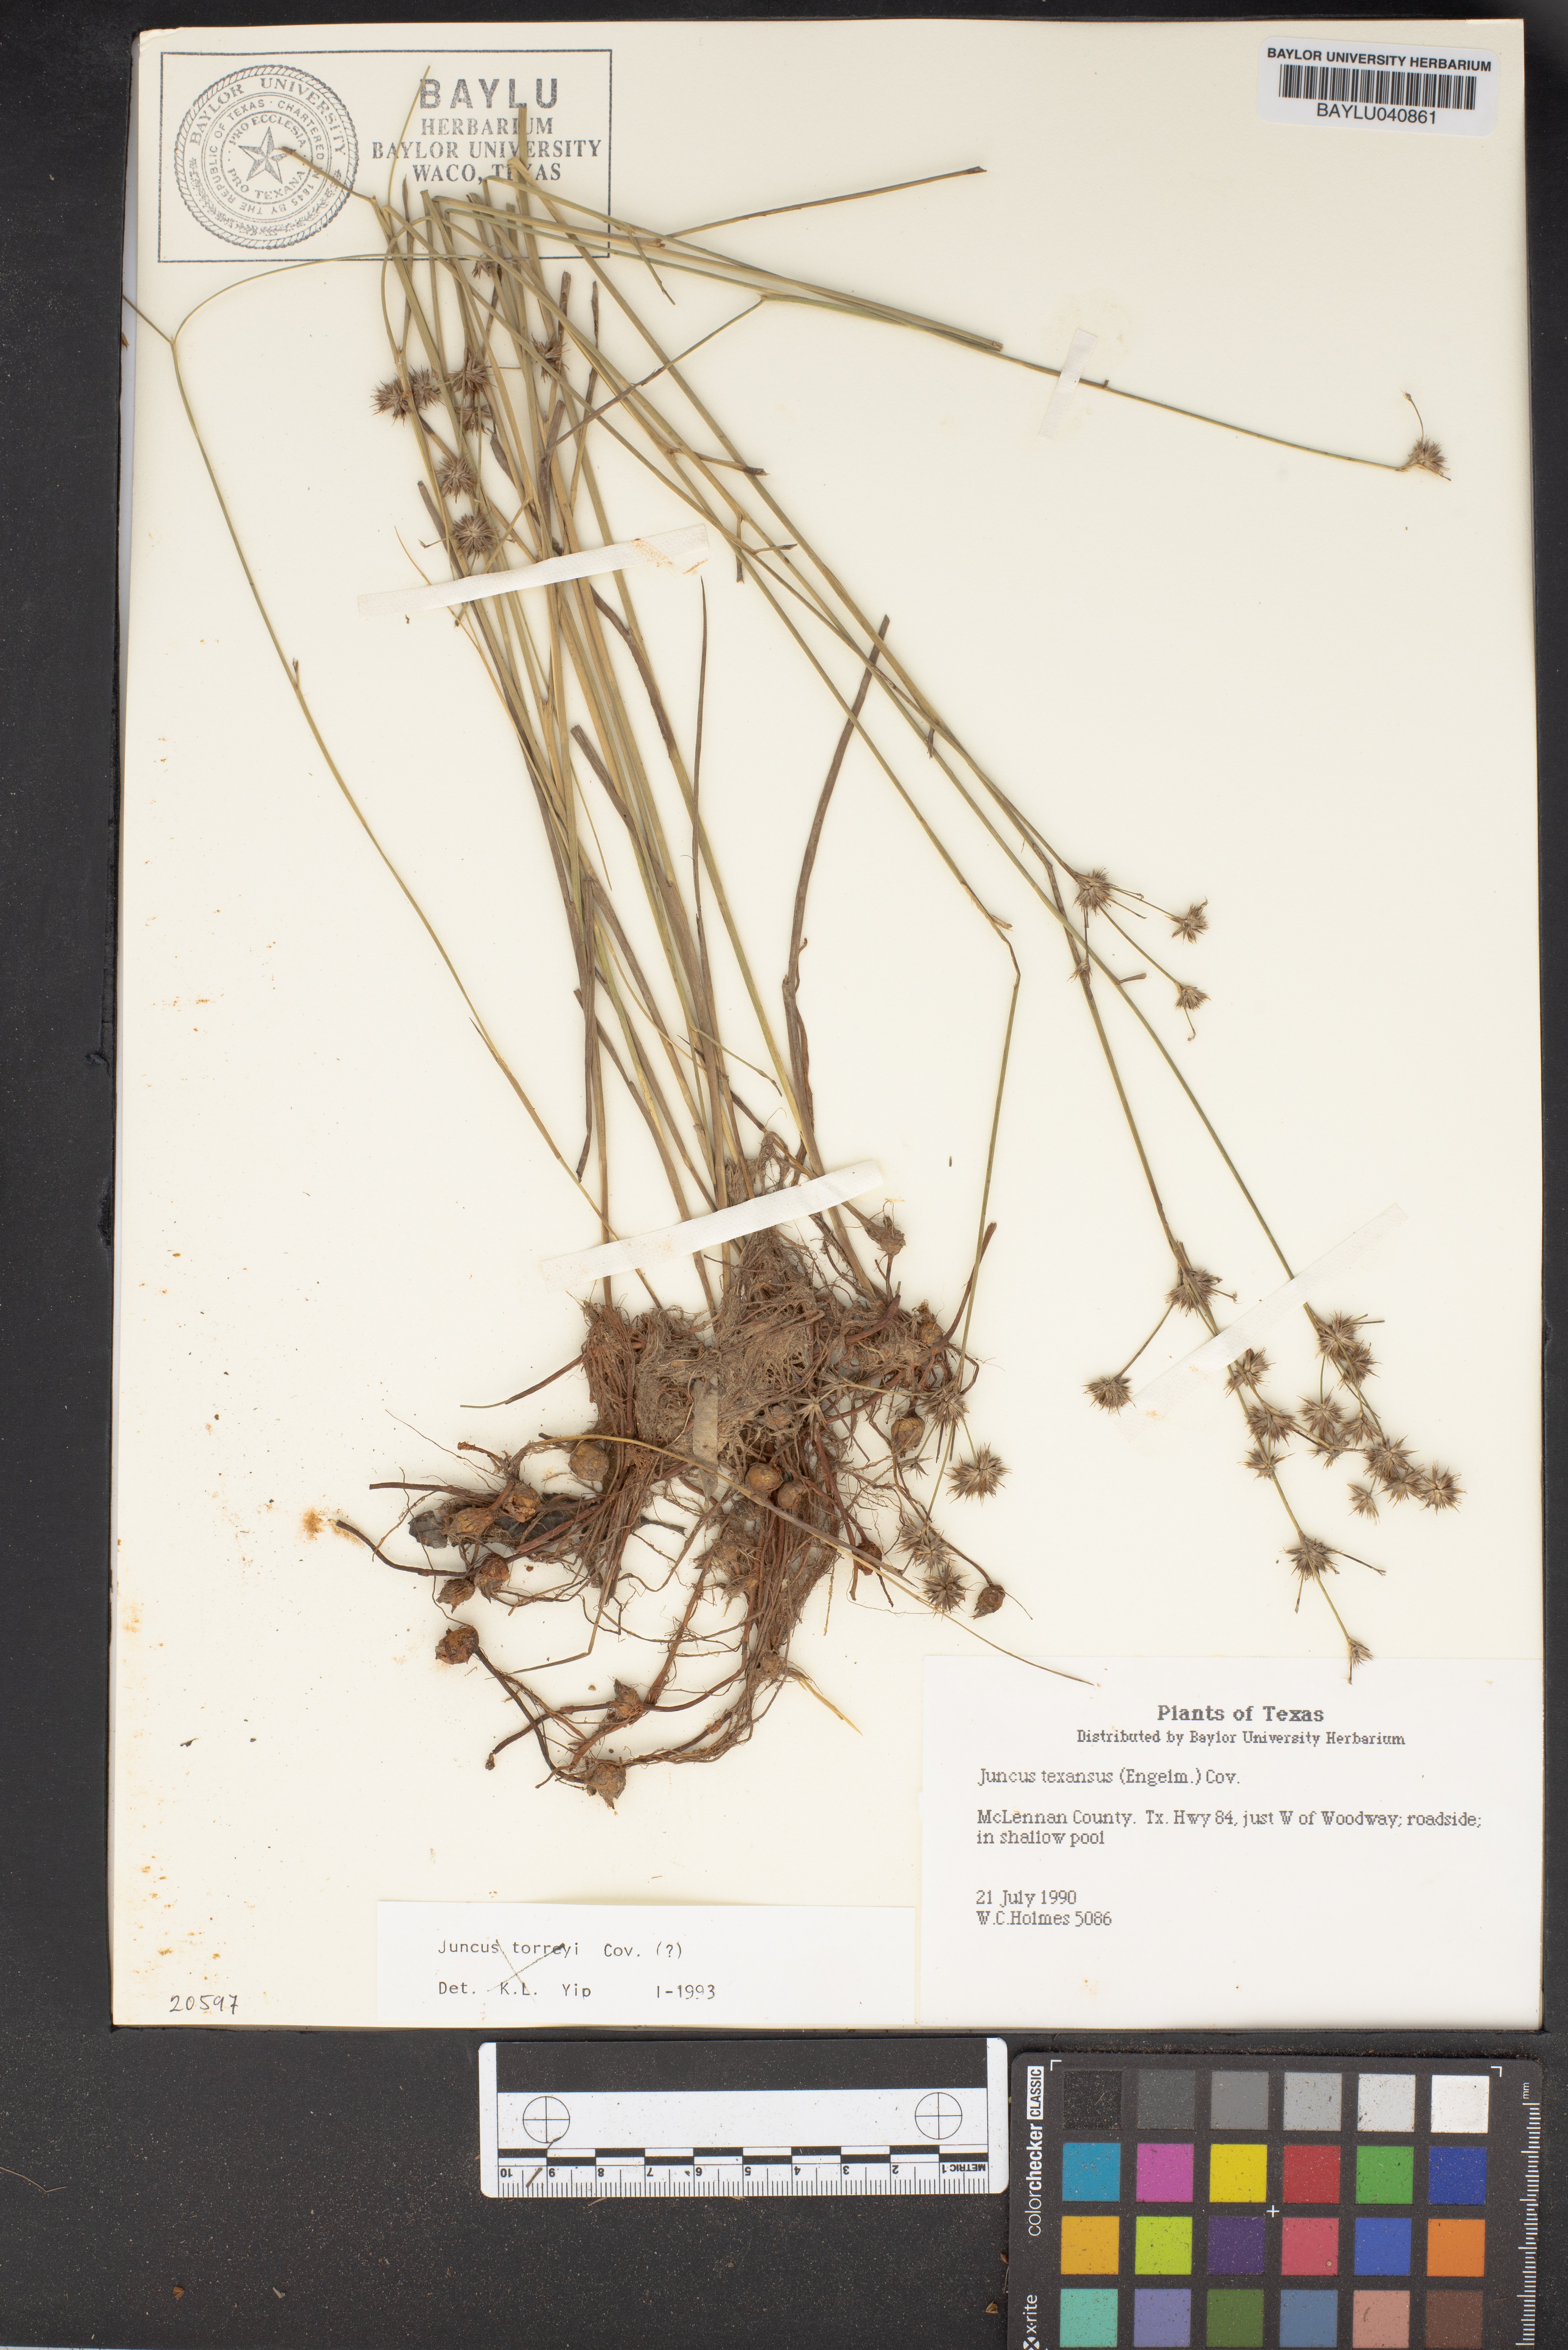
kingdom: Plantae
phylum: Tracheophyta
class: Liliopsida
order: Poales
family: Juncaceae
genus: Juncus
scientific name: Juncus texanus
